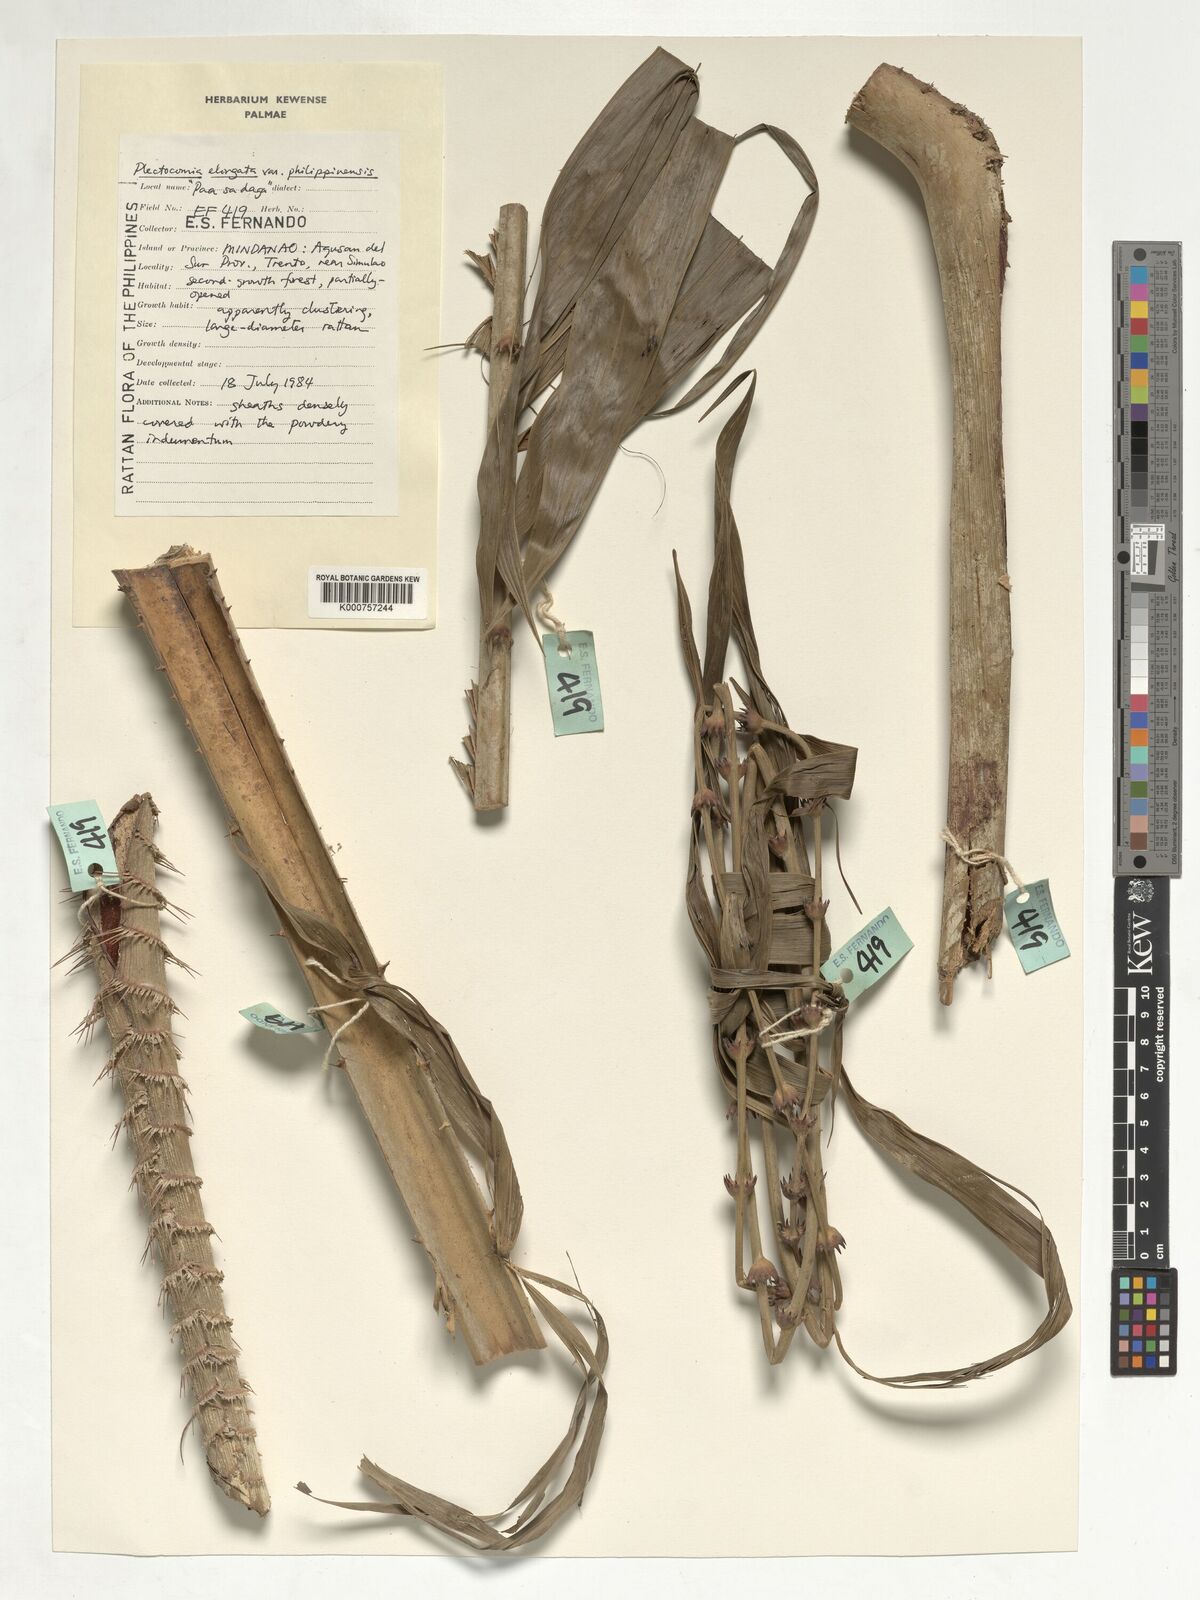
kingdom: Plantae
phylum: Tracheophyta
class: Liliopsida
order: Arecales
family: Arecaceae
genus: Plectocomia
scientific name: Plectocomia elongata
